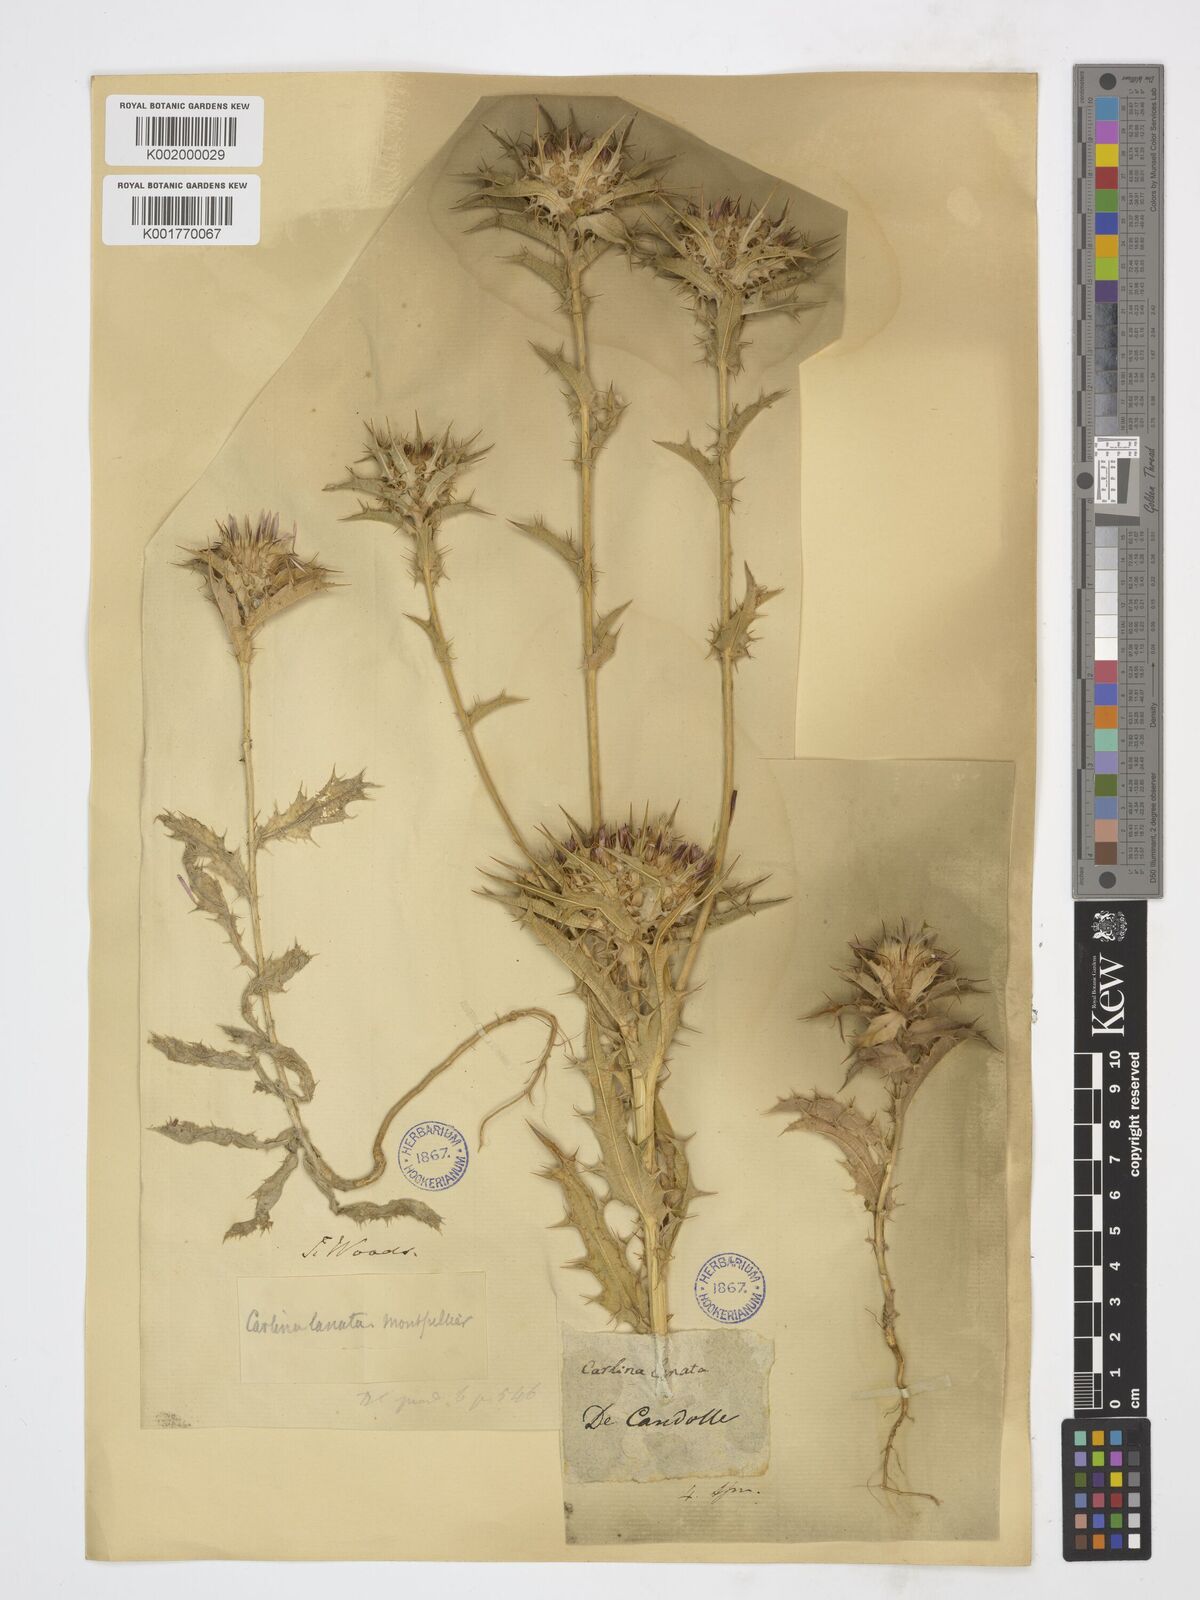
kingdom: Plantae
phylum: Tracheophyta
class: Magnoliopsida
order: Asterales
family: Asteraceae
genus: Carlina
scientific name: Carlina lanata
